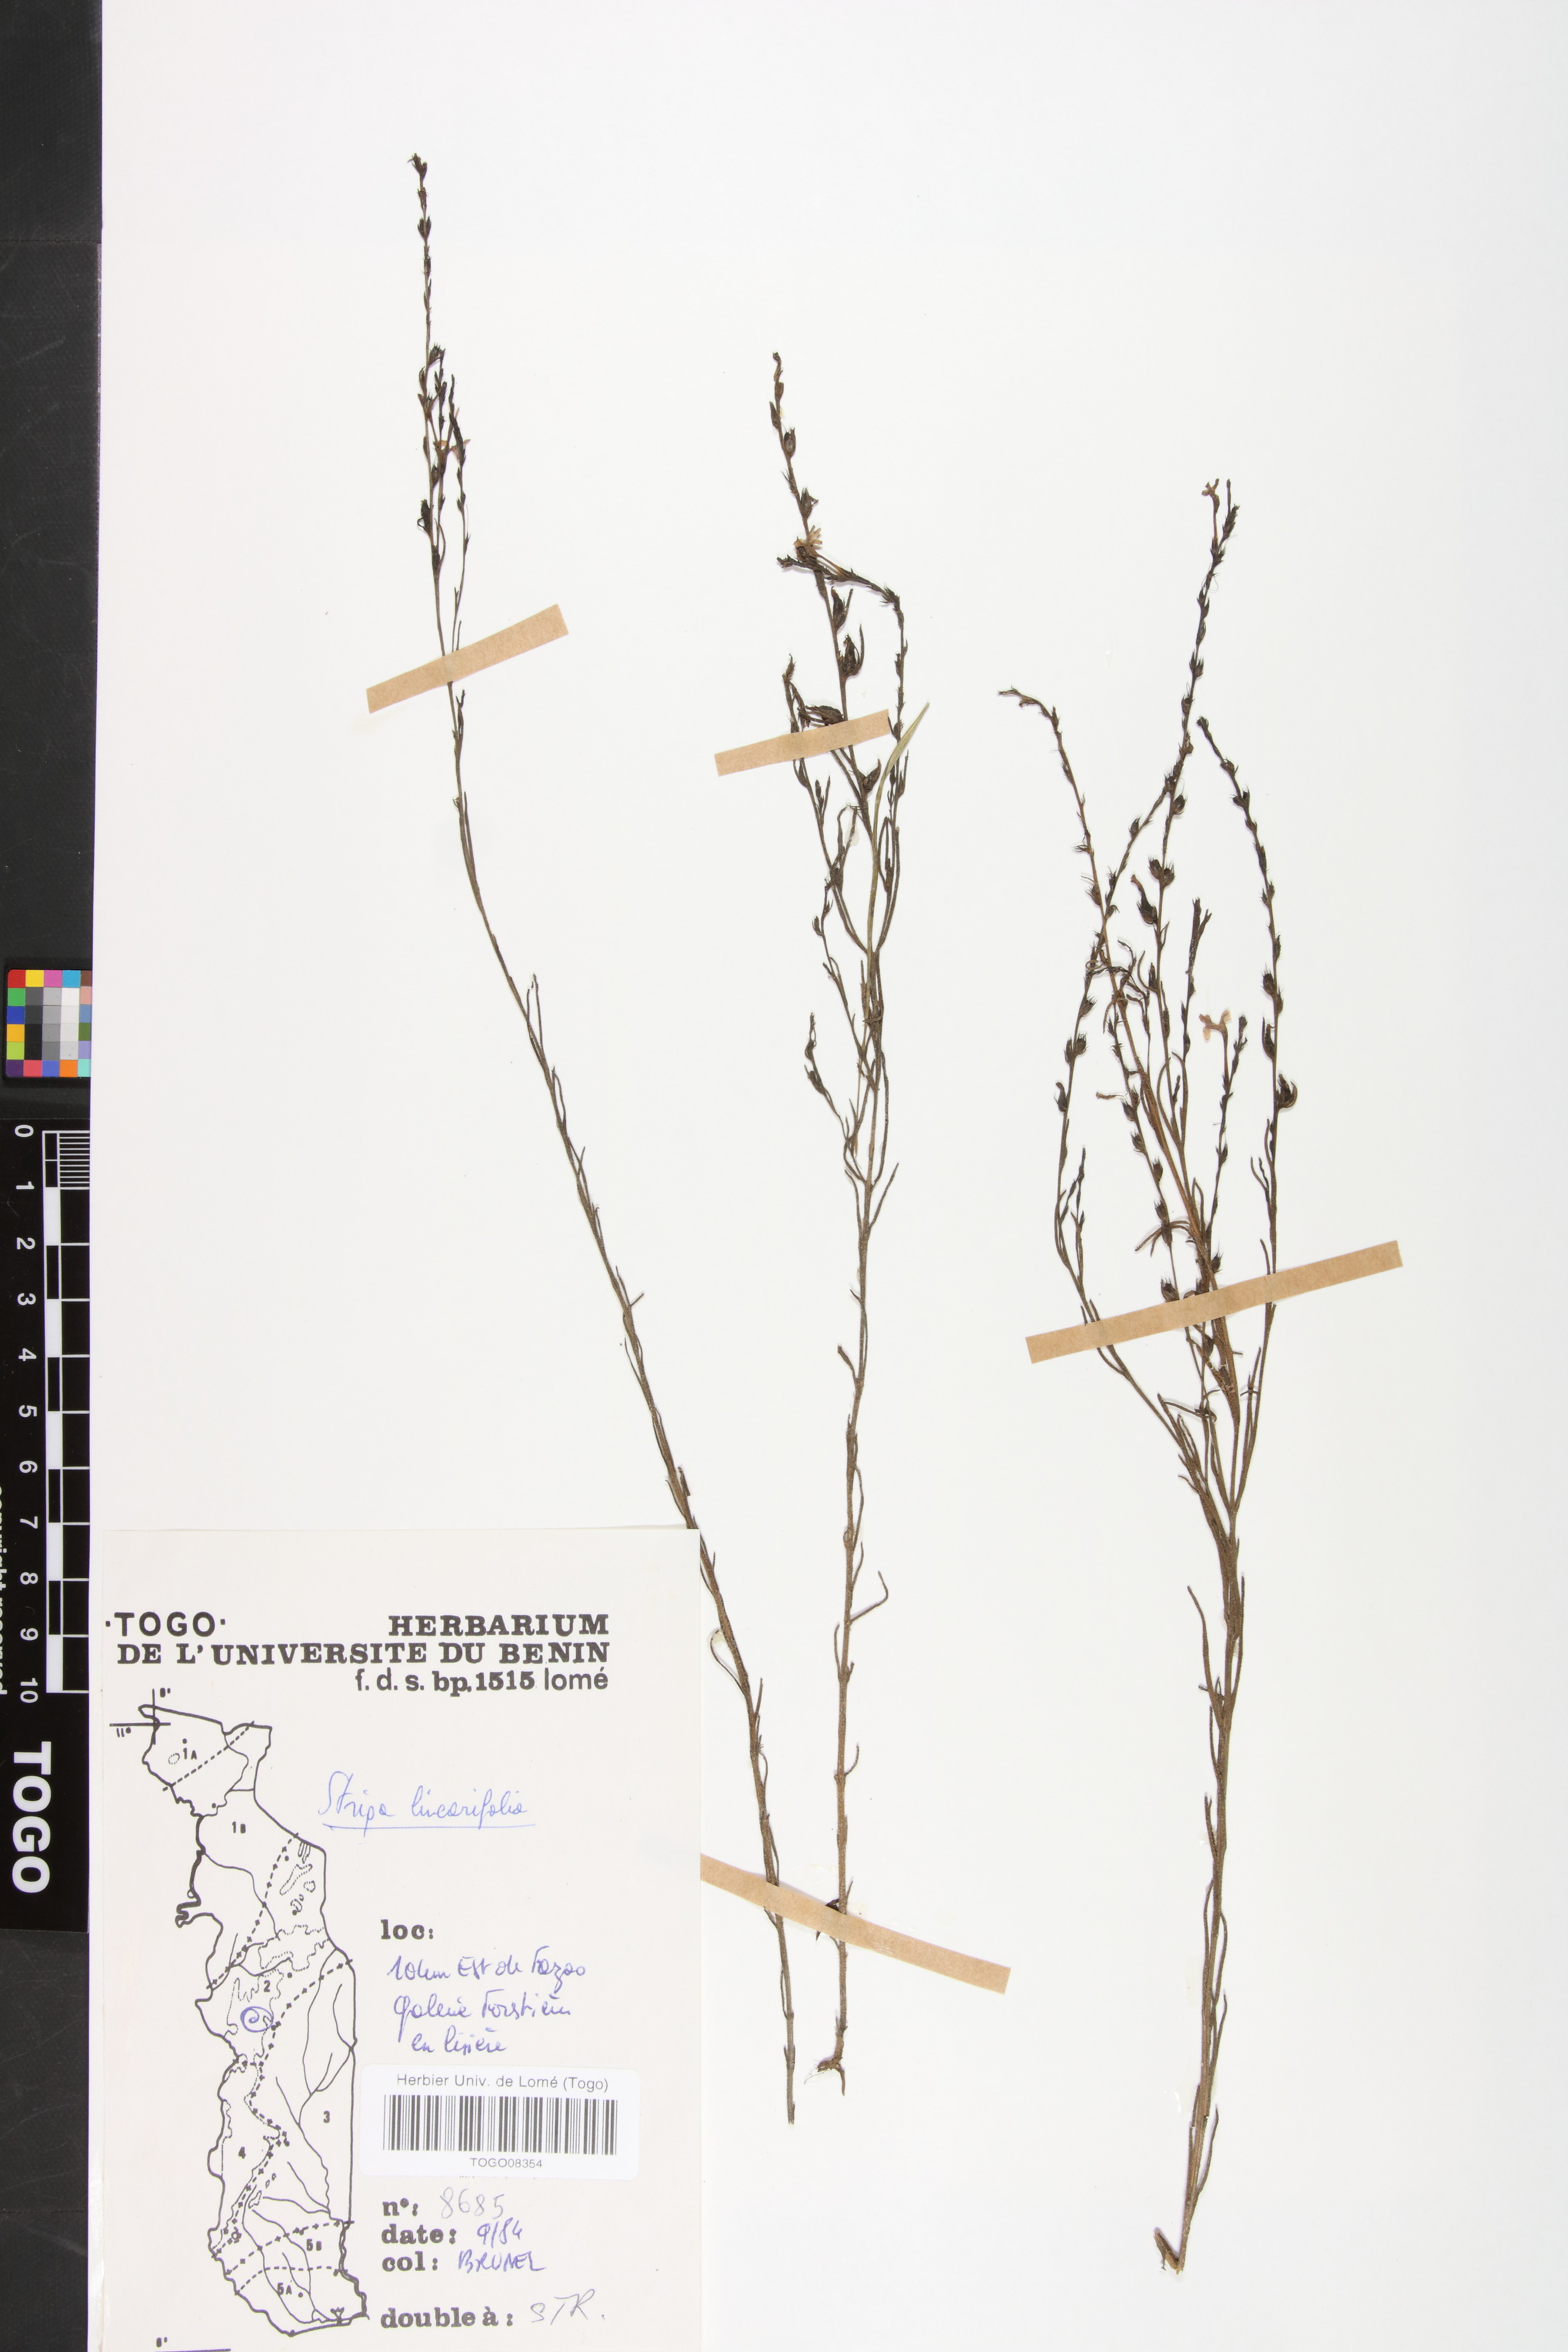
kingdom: Plantae
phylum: Tracheophyta
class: Magnoliopsida
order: Lamiales
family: Orobanchaceae
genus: Striga
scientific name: Striga linearifolia
